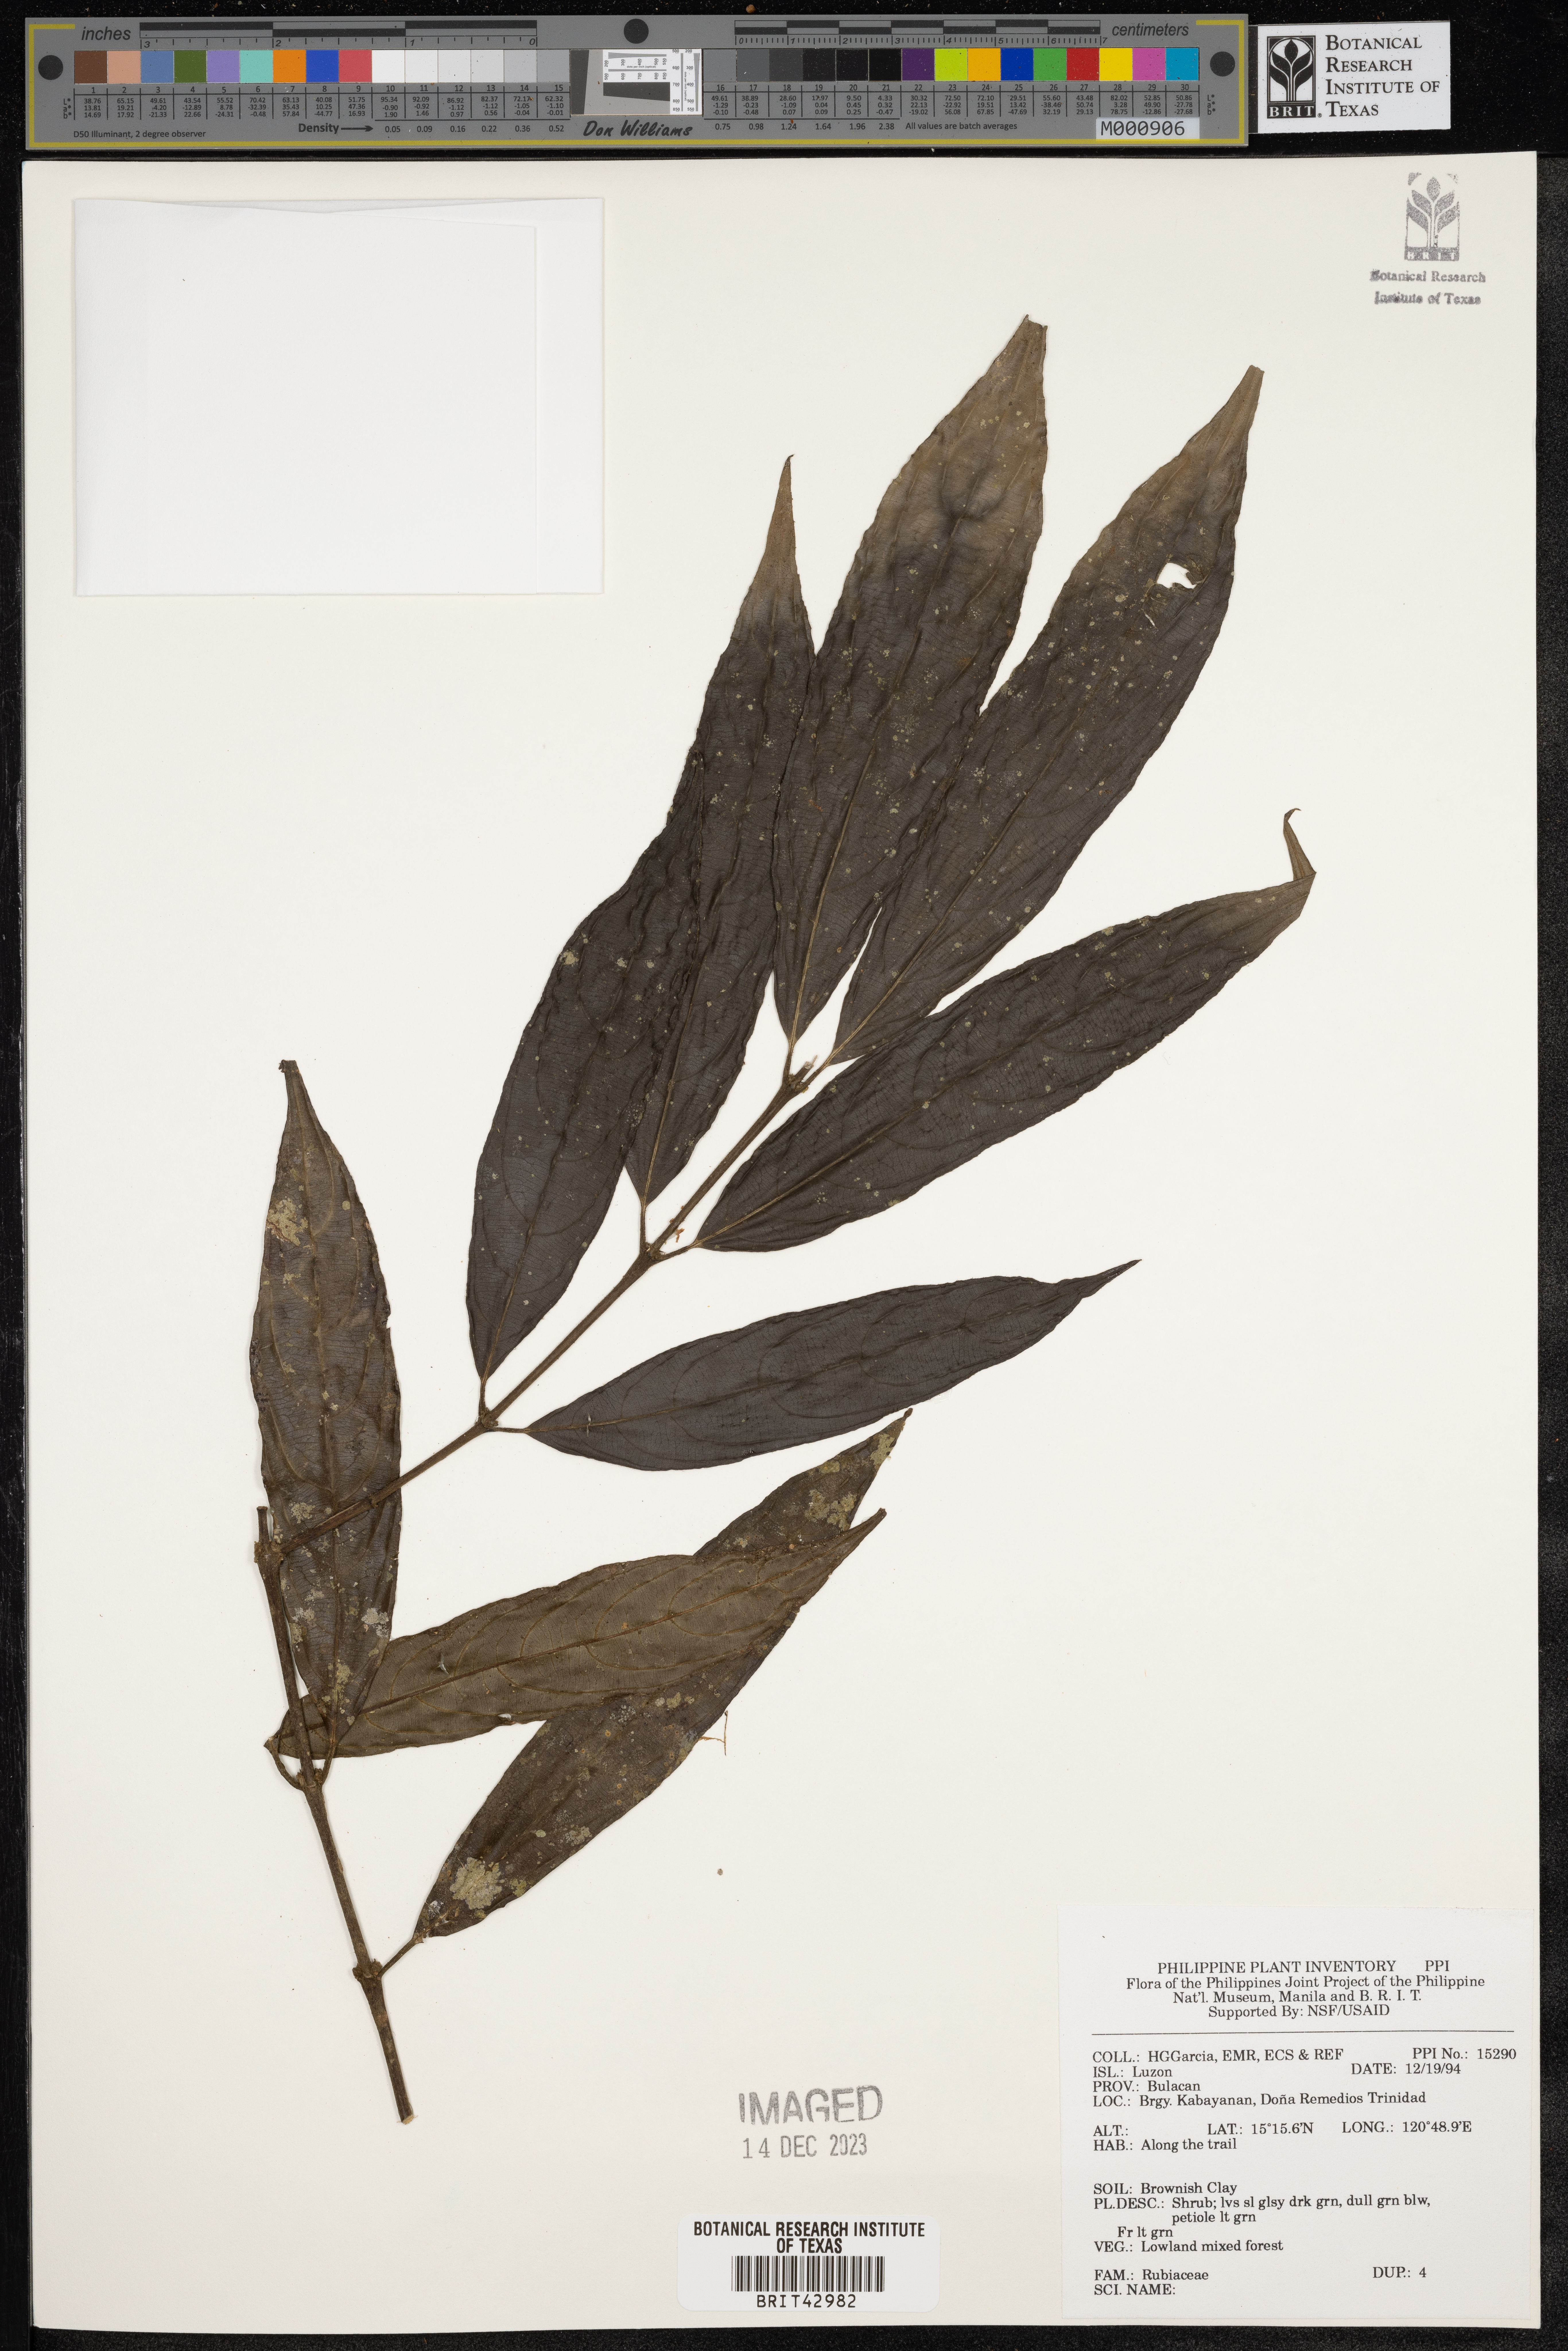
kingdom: Plantae
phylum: Tracheophyta
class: Magnoliopsida
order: Gentianales
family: Rubiaceae
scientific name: Rubiaceae
